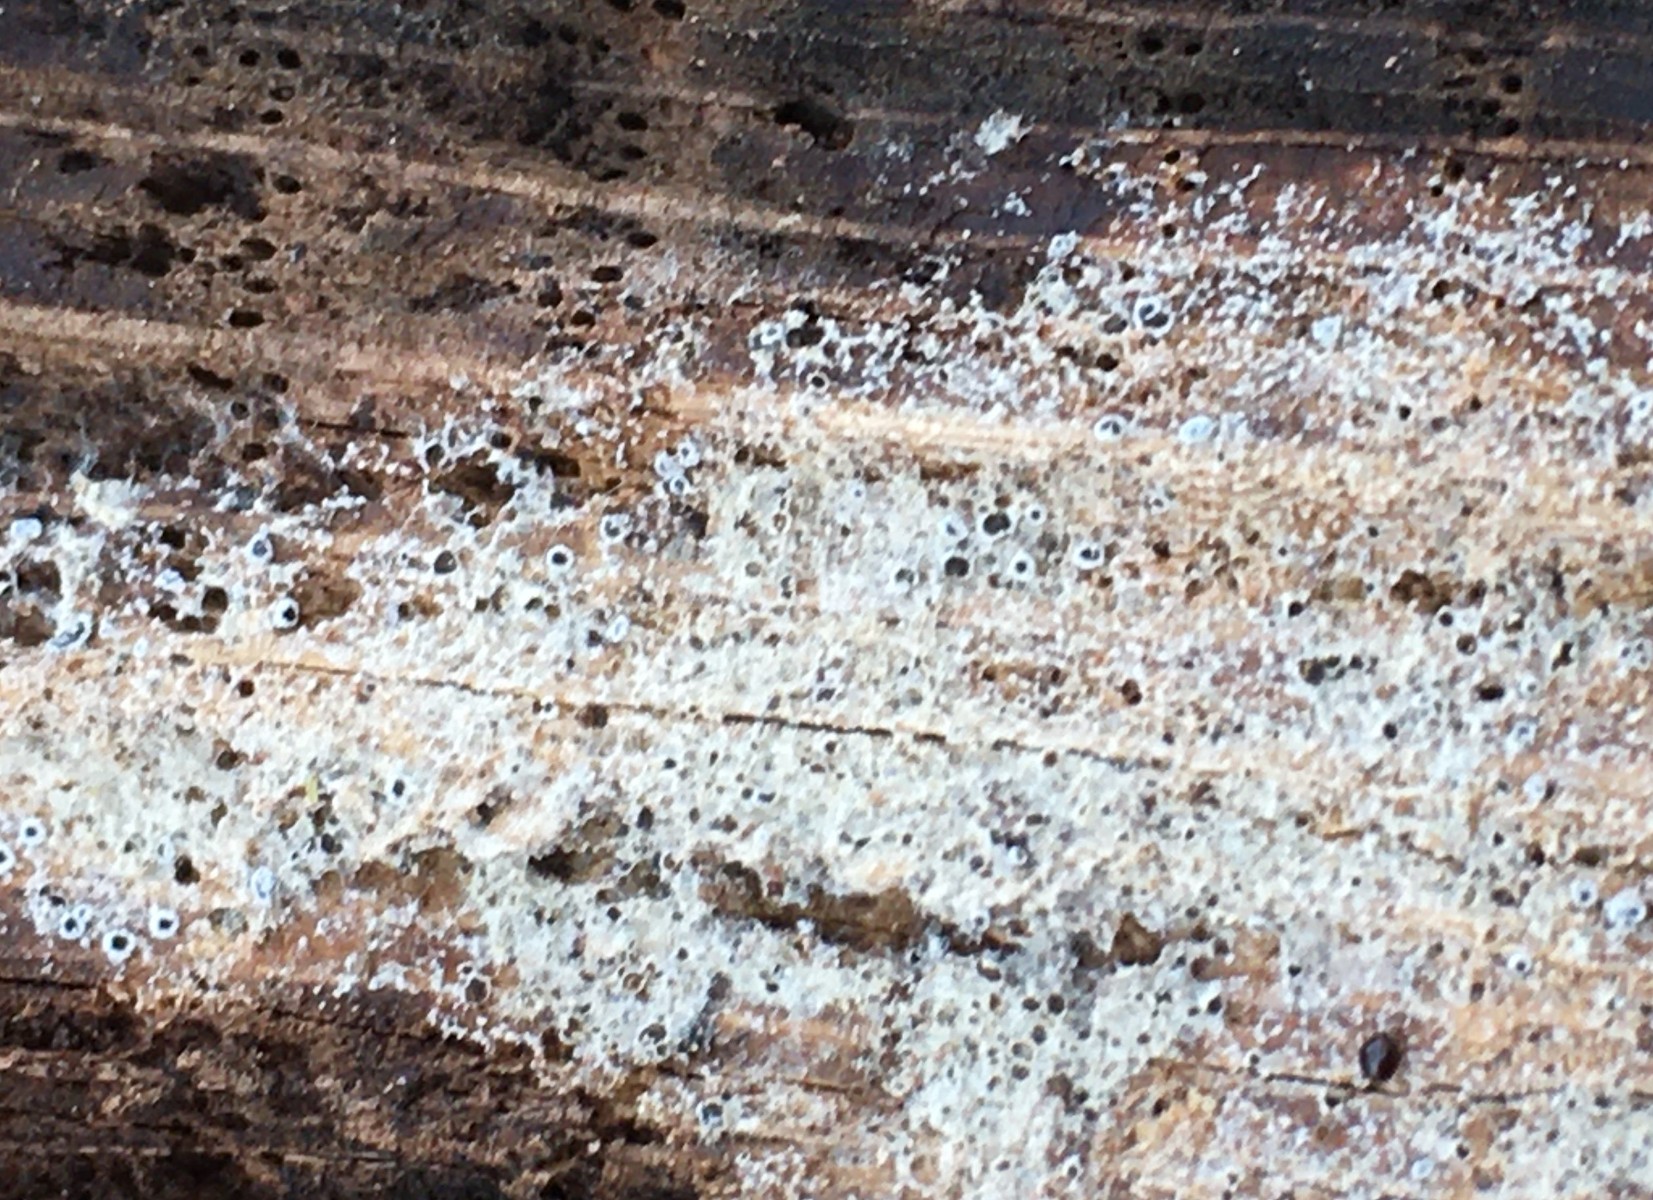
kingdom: Fungi
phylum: Ascomycota
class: Leotiomycetes
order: Helotiales
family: Arachnopezizaceae
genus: Eriopezia
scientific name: Eriopezia caesia
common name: ege-spindskive
